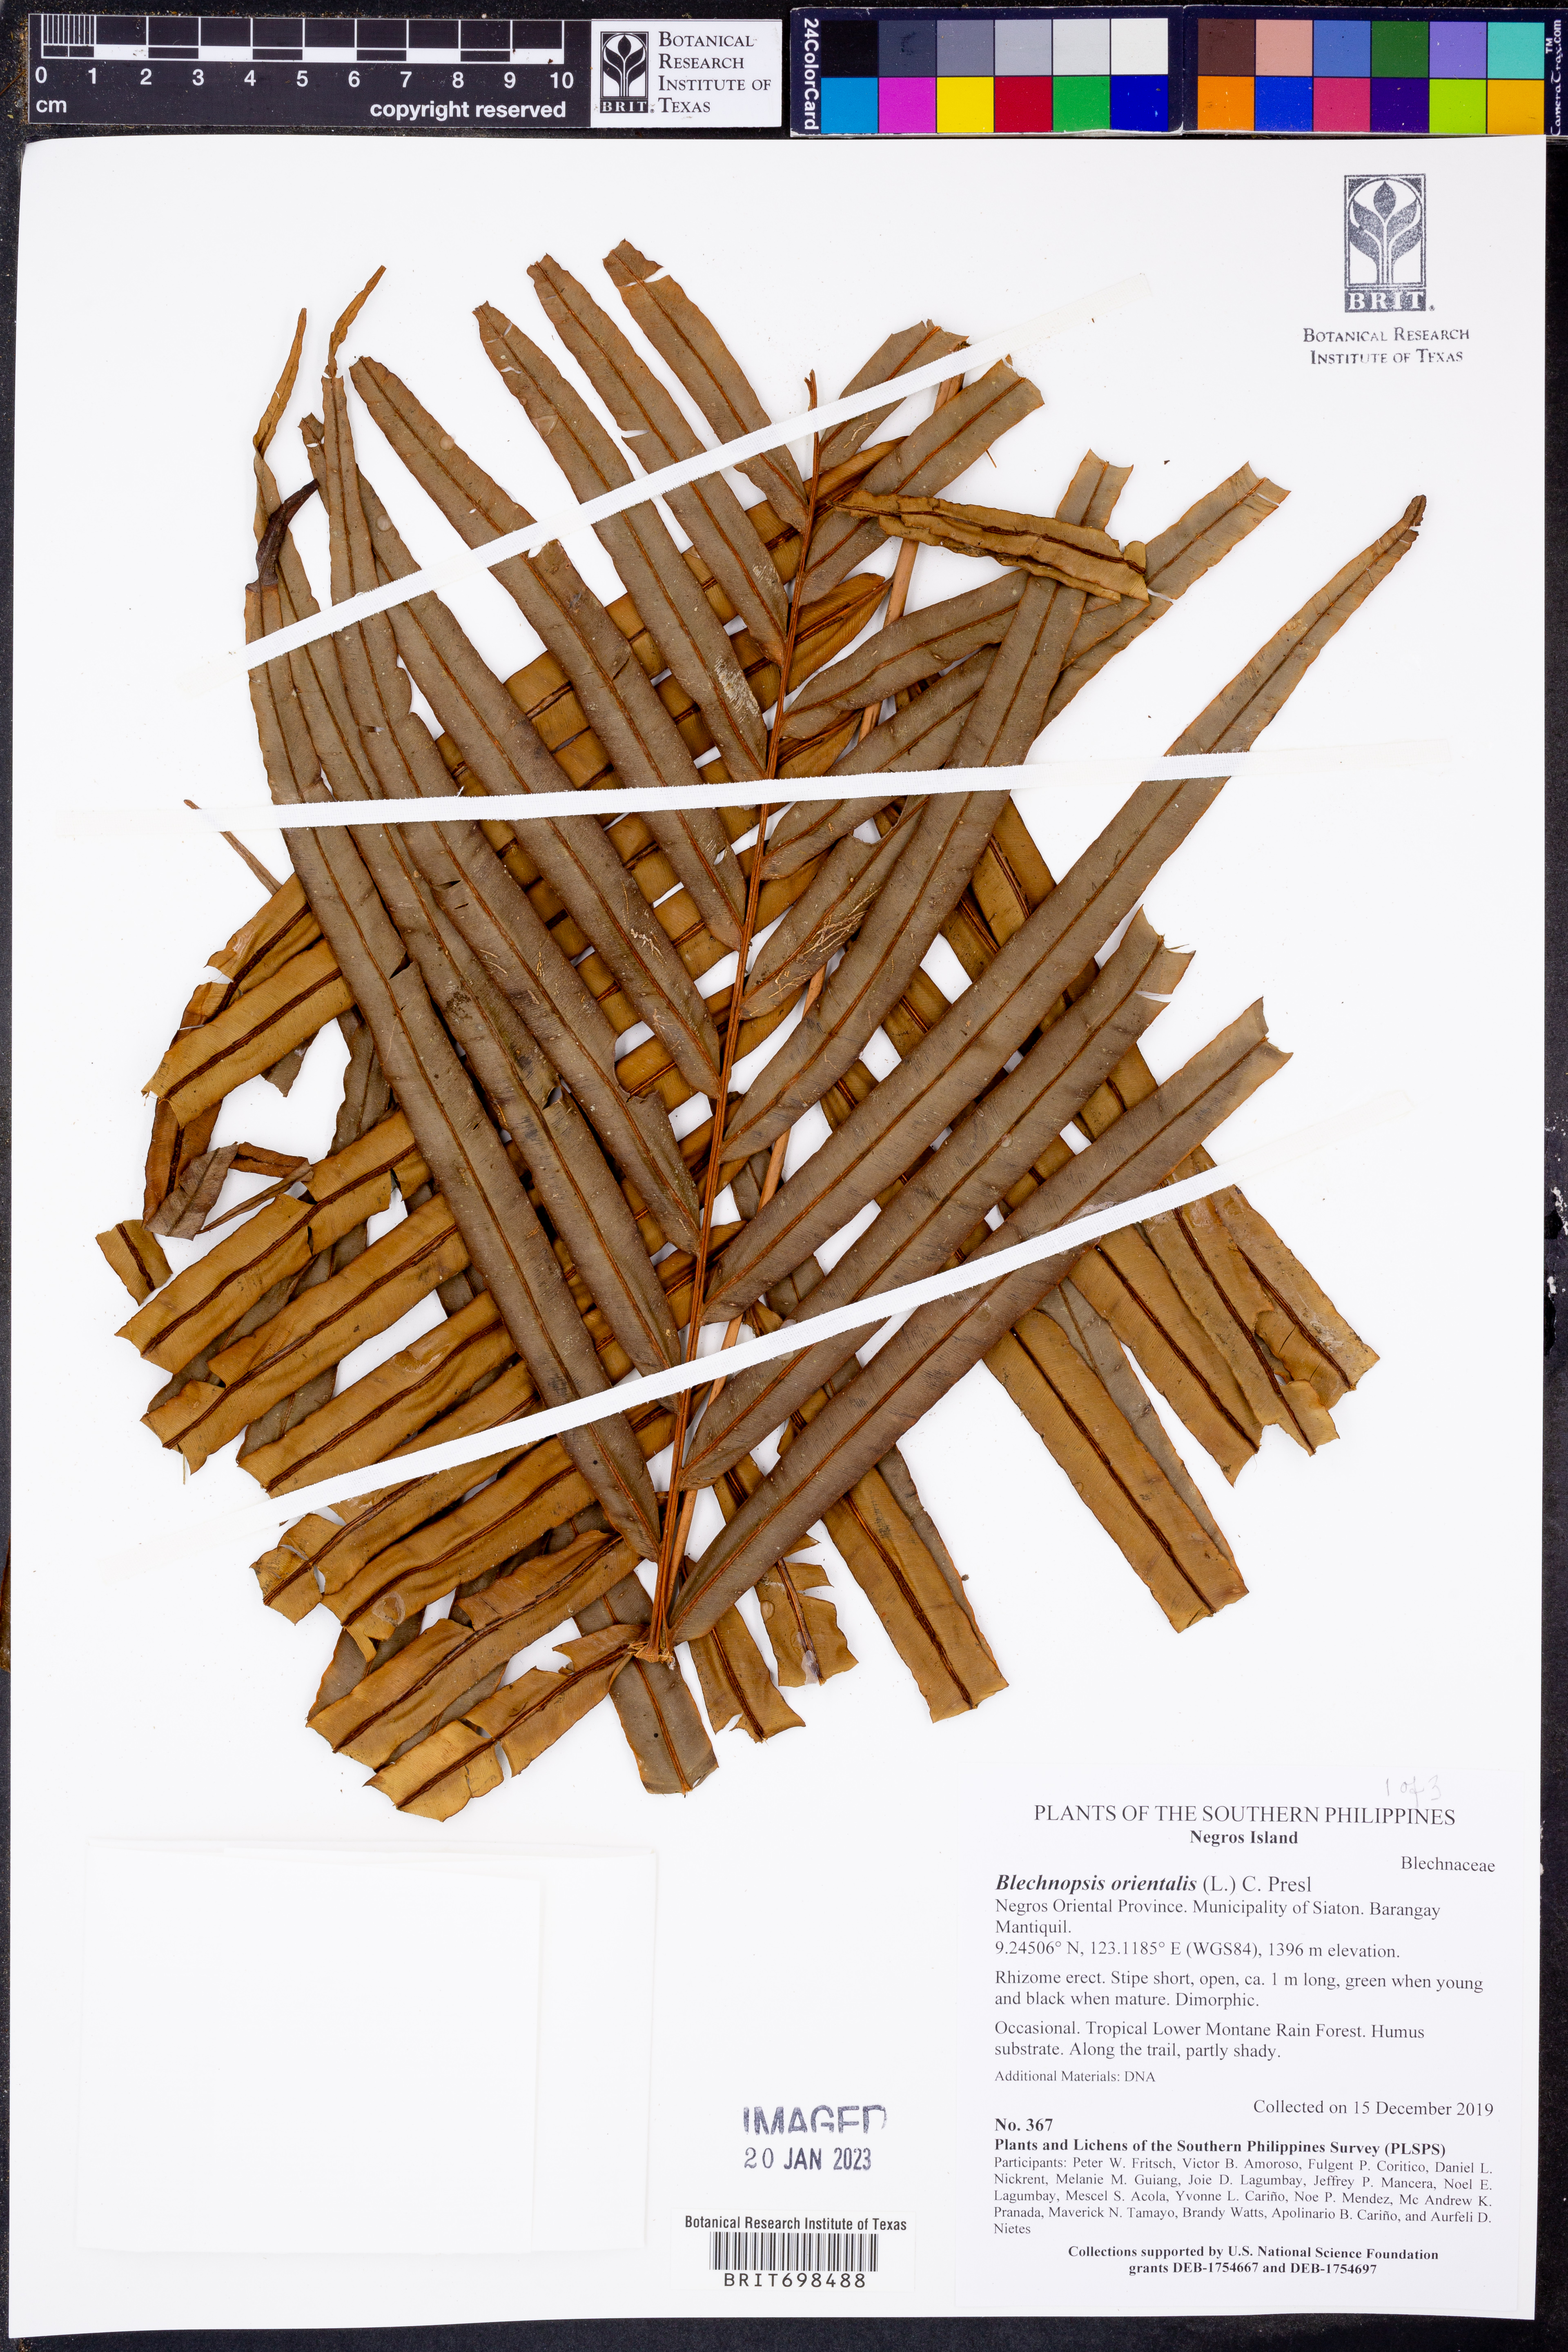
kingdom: Plantae
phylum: Tracheophyta
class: Polypodiopsida
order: Polypodiales
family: Blechnaceae
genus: Blechnopsis
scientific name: Blechnopsis orientalis
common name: Oriental blechnum
